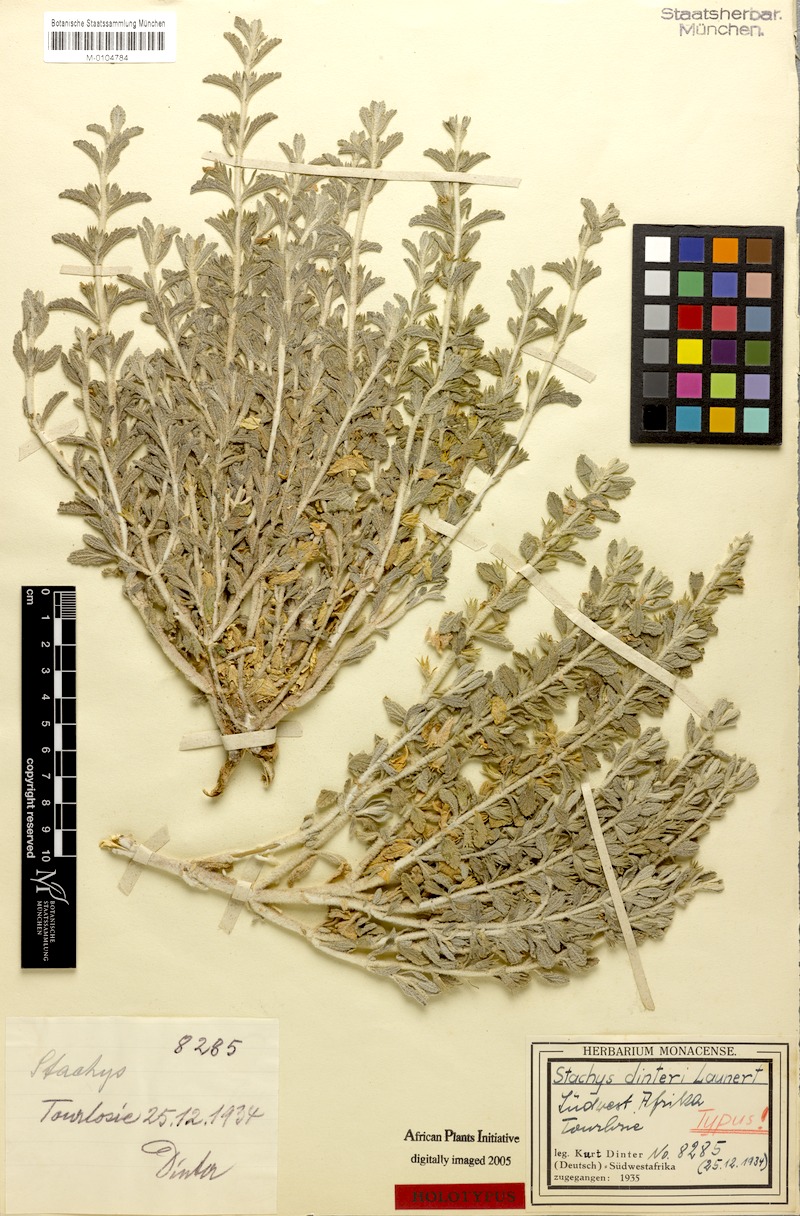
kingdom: Plantae
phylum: Tracheophyta
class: Magnoliopsida
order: Lamiales
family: Lamiaceae
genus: Stachys
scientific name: Stachys dinteri
